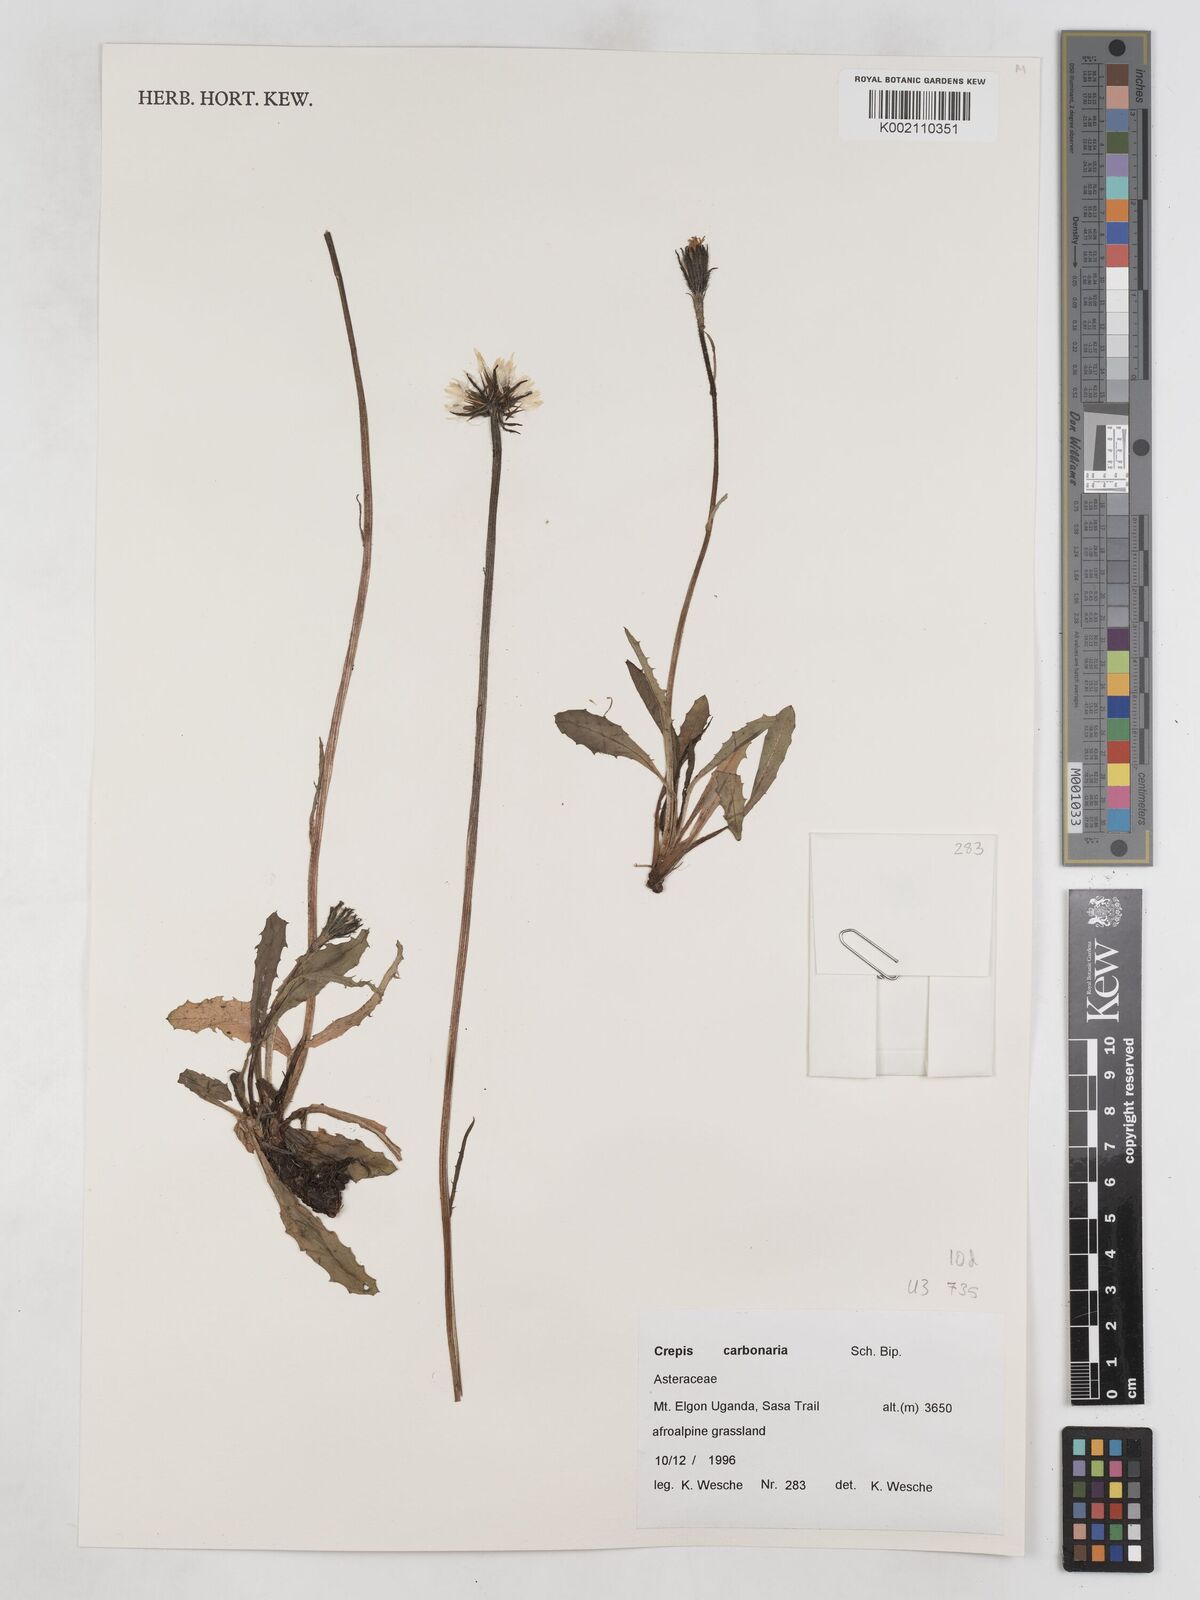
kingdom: Plantae
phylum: Tracheophyta
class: Magnoliopsida
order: Asterales
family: Asteraceae
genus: Crepis
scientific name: Crepis carbonaria
